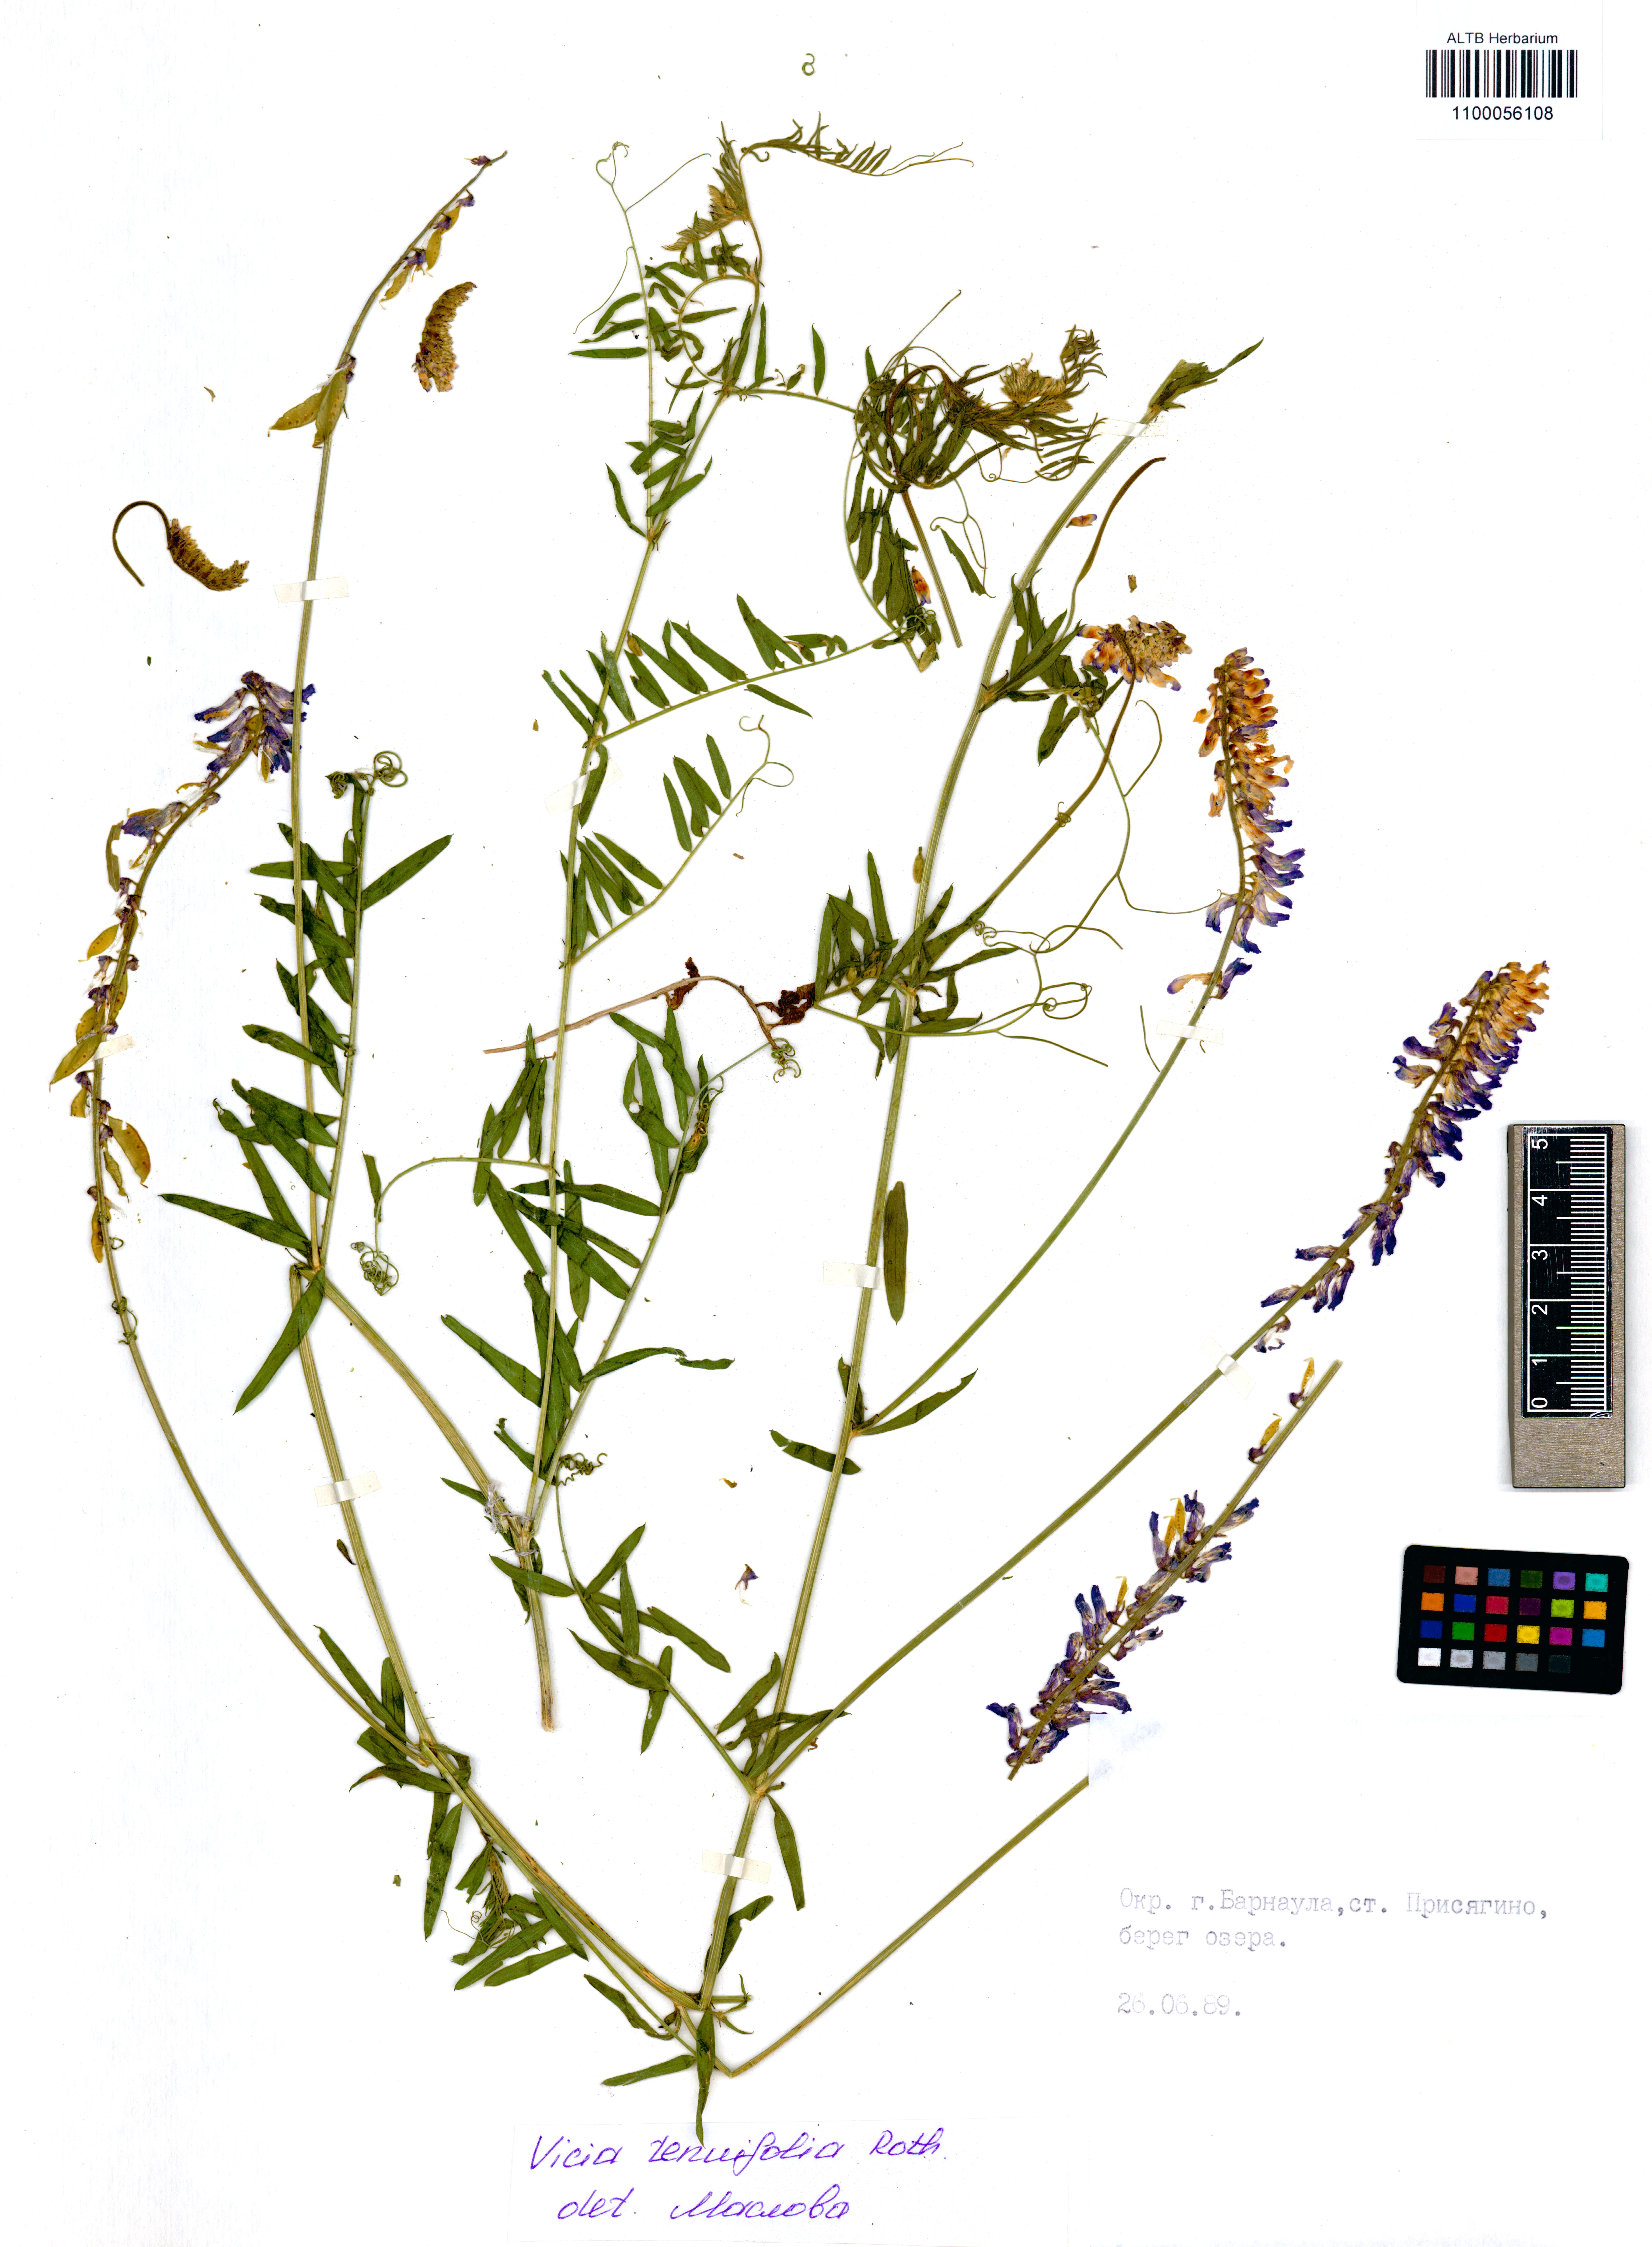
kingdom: Plantae
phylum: Tracheophyta
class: Magnoliopsida
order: Fabales
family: Fabaceae
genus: Vicia
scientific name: Vicia tenuifolia
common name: Fine-leaved vetch
